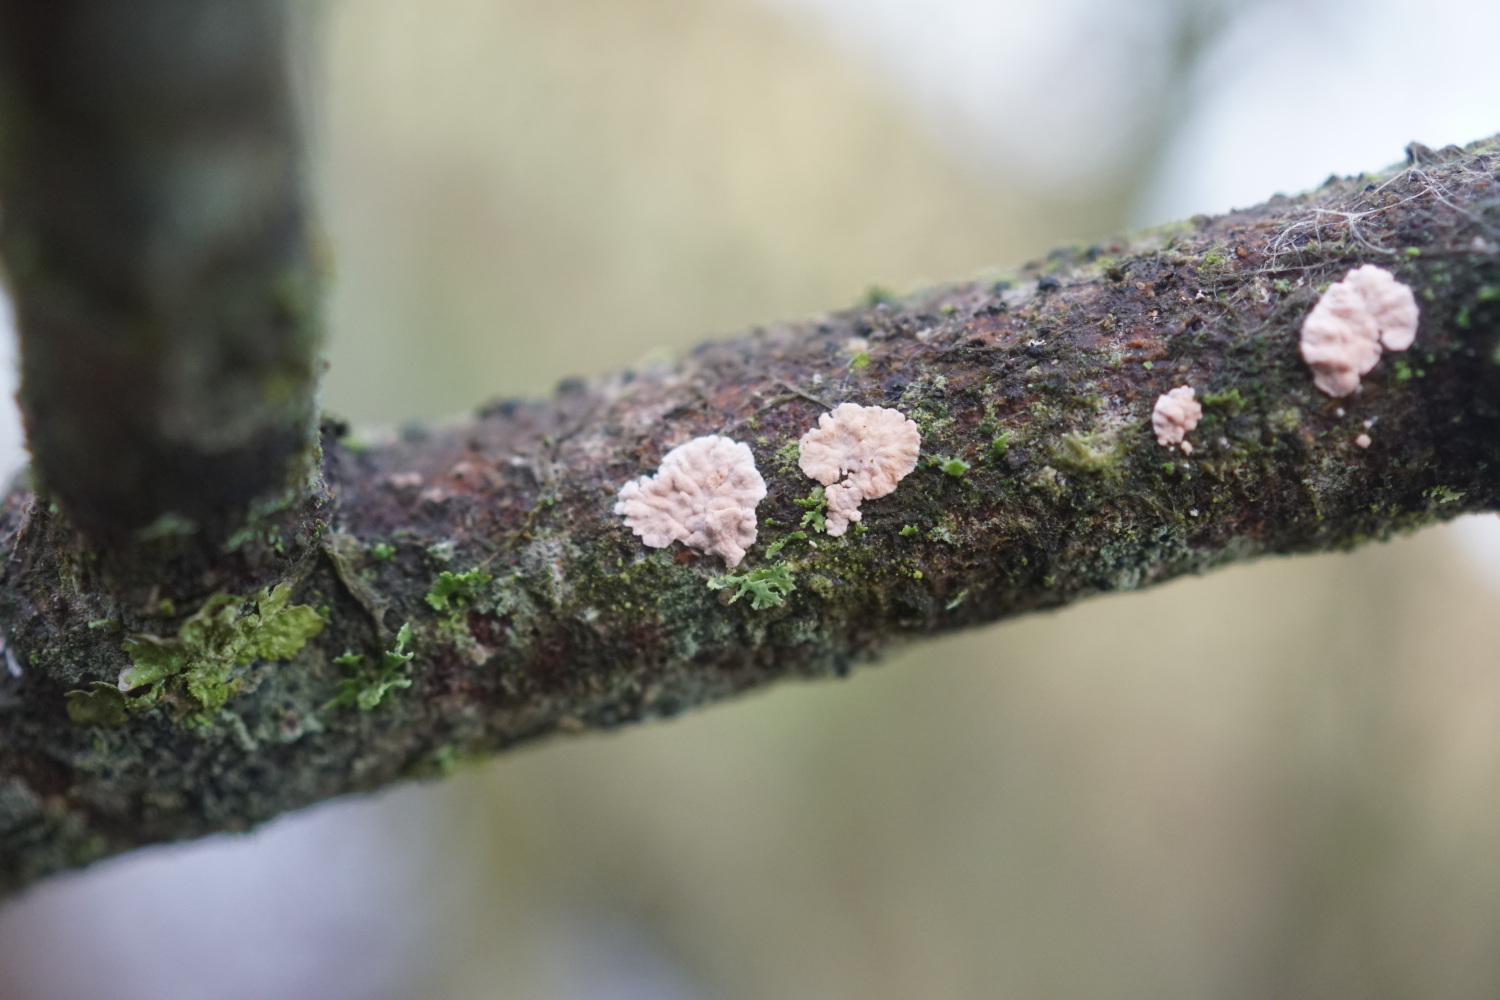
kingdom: Fungi
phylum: Basidiomycota
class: Agaricomycetes
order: Corticiales
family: Corticiaceae
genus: Corticium
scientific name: Corticium roseum
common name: rosa barkskind
